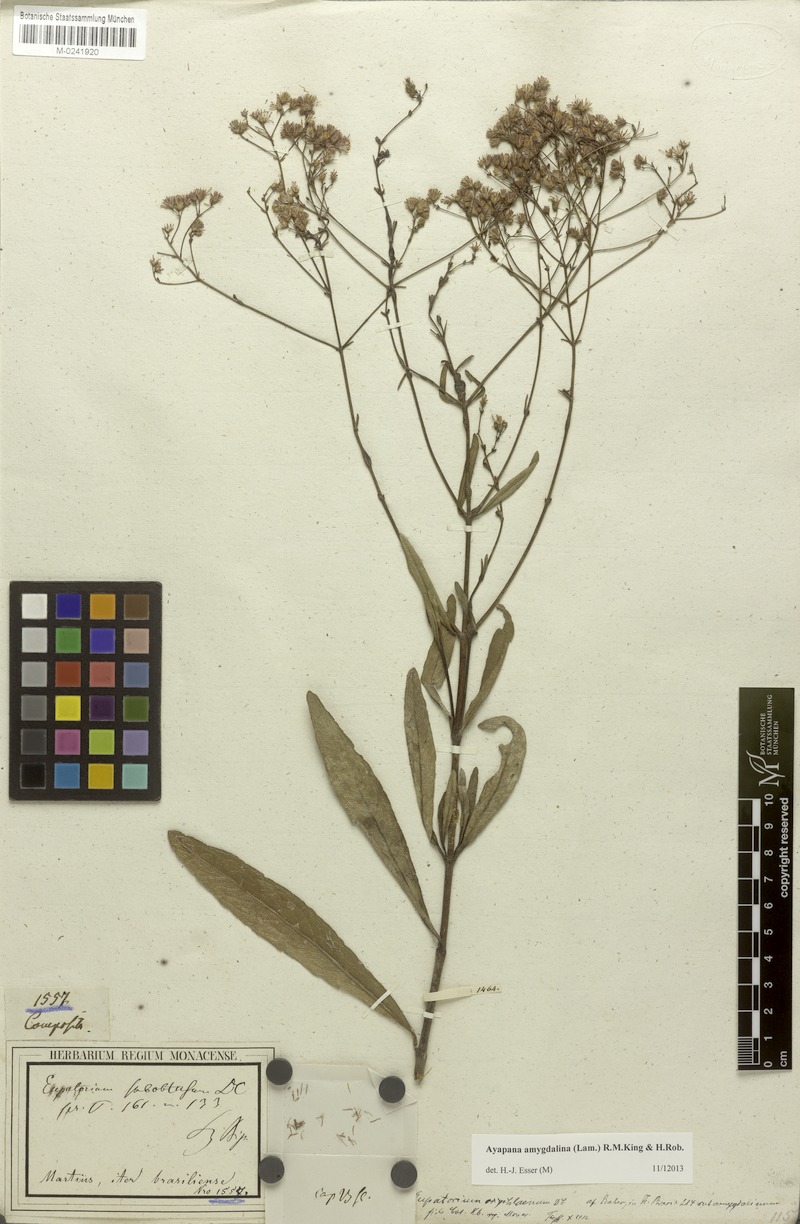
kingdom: Plantae
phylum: Tracheophyta
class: Magnoliopsida
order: Asterales
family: Asteraceae
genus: Ayapana
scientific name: Ayapana amygdalina
